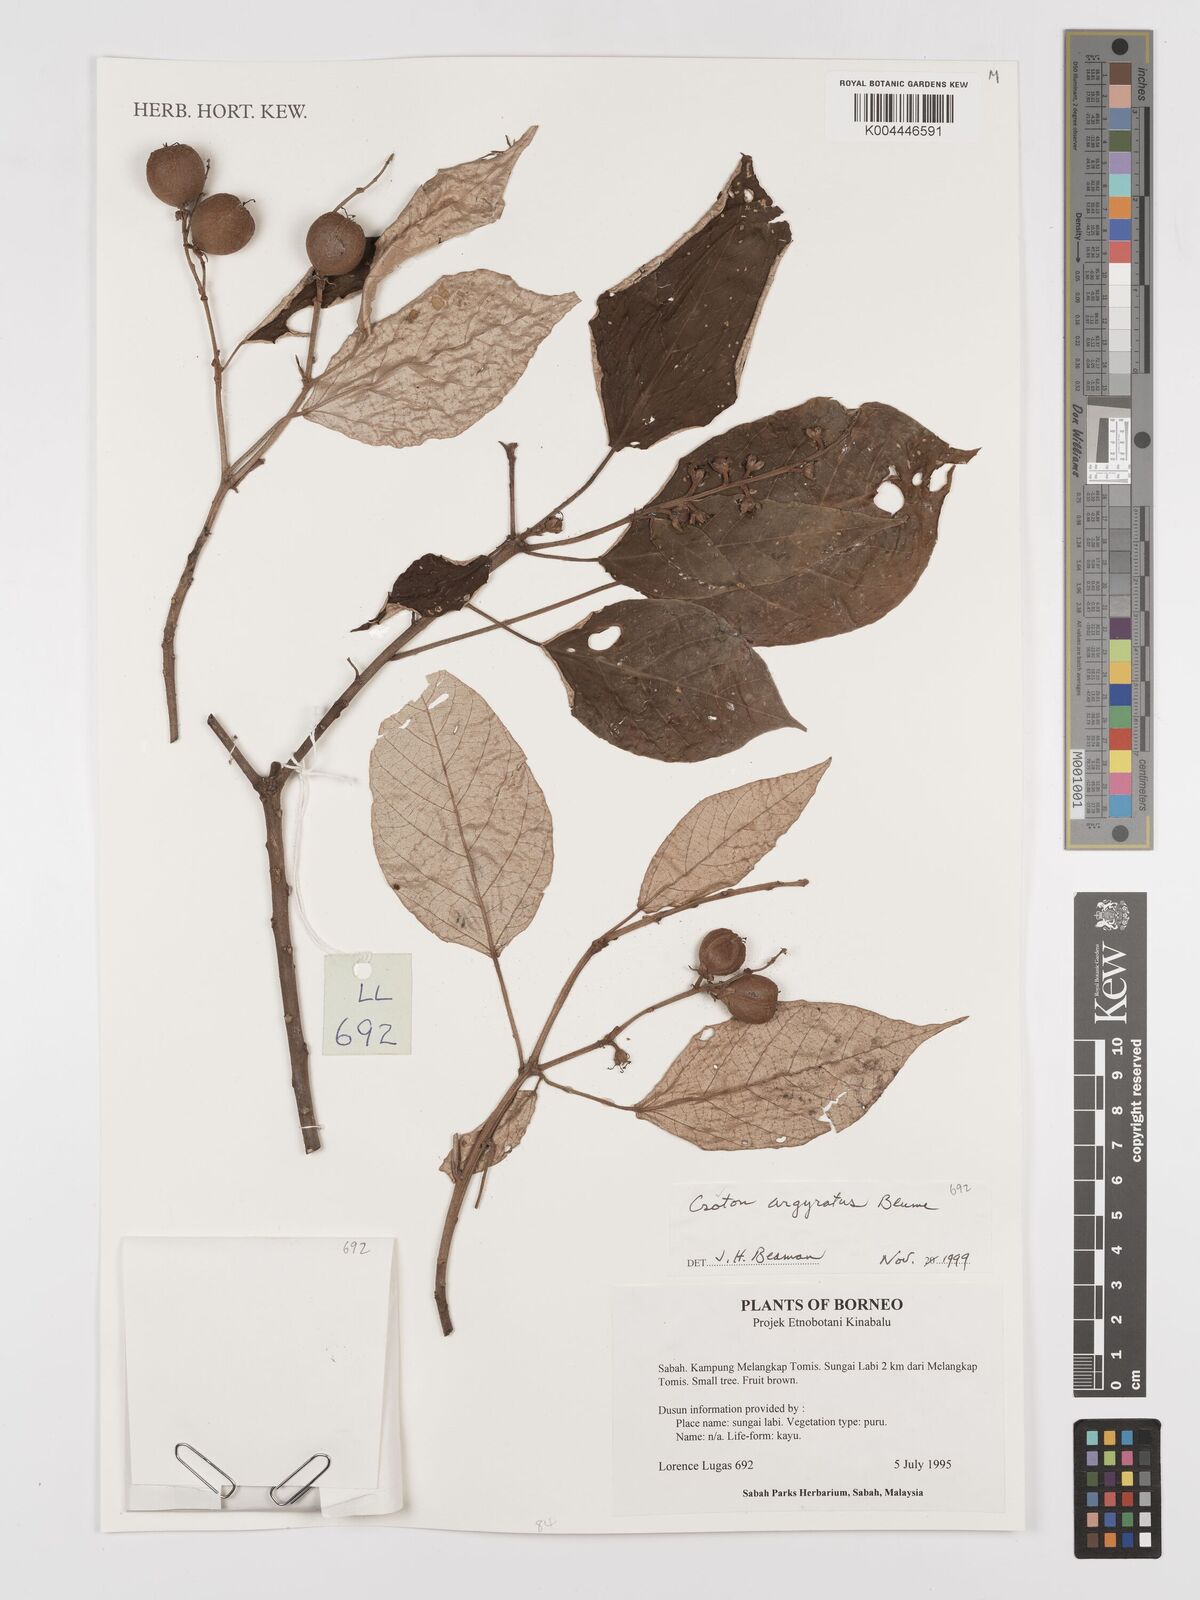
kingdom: Plantae
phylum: Tracheophyta
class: Magnoliopsida
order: Malpighiales
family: Euphorbiaceae
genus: Croton
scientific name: Croton argyratus
